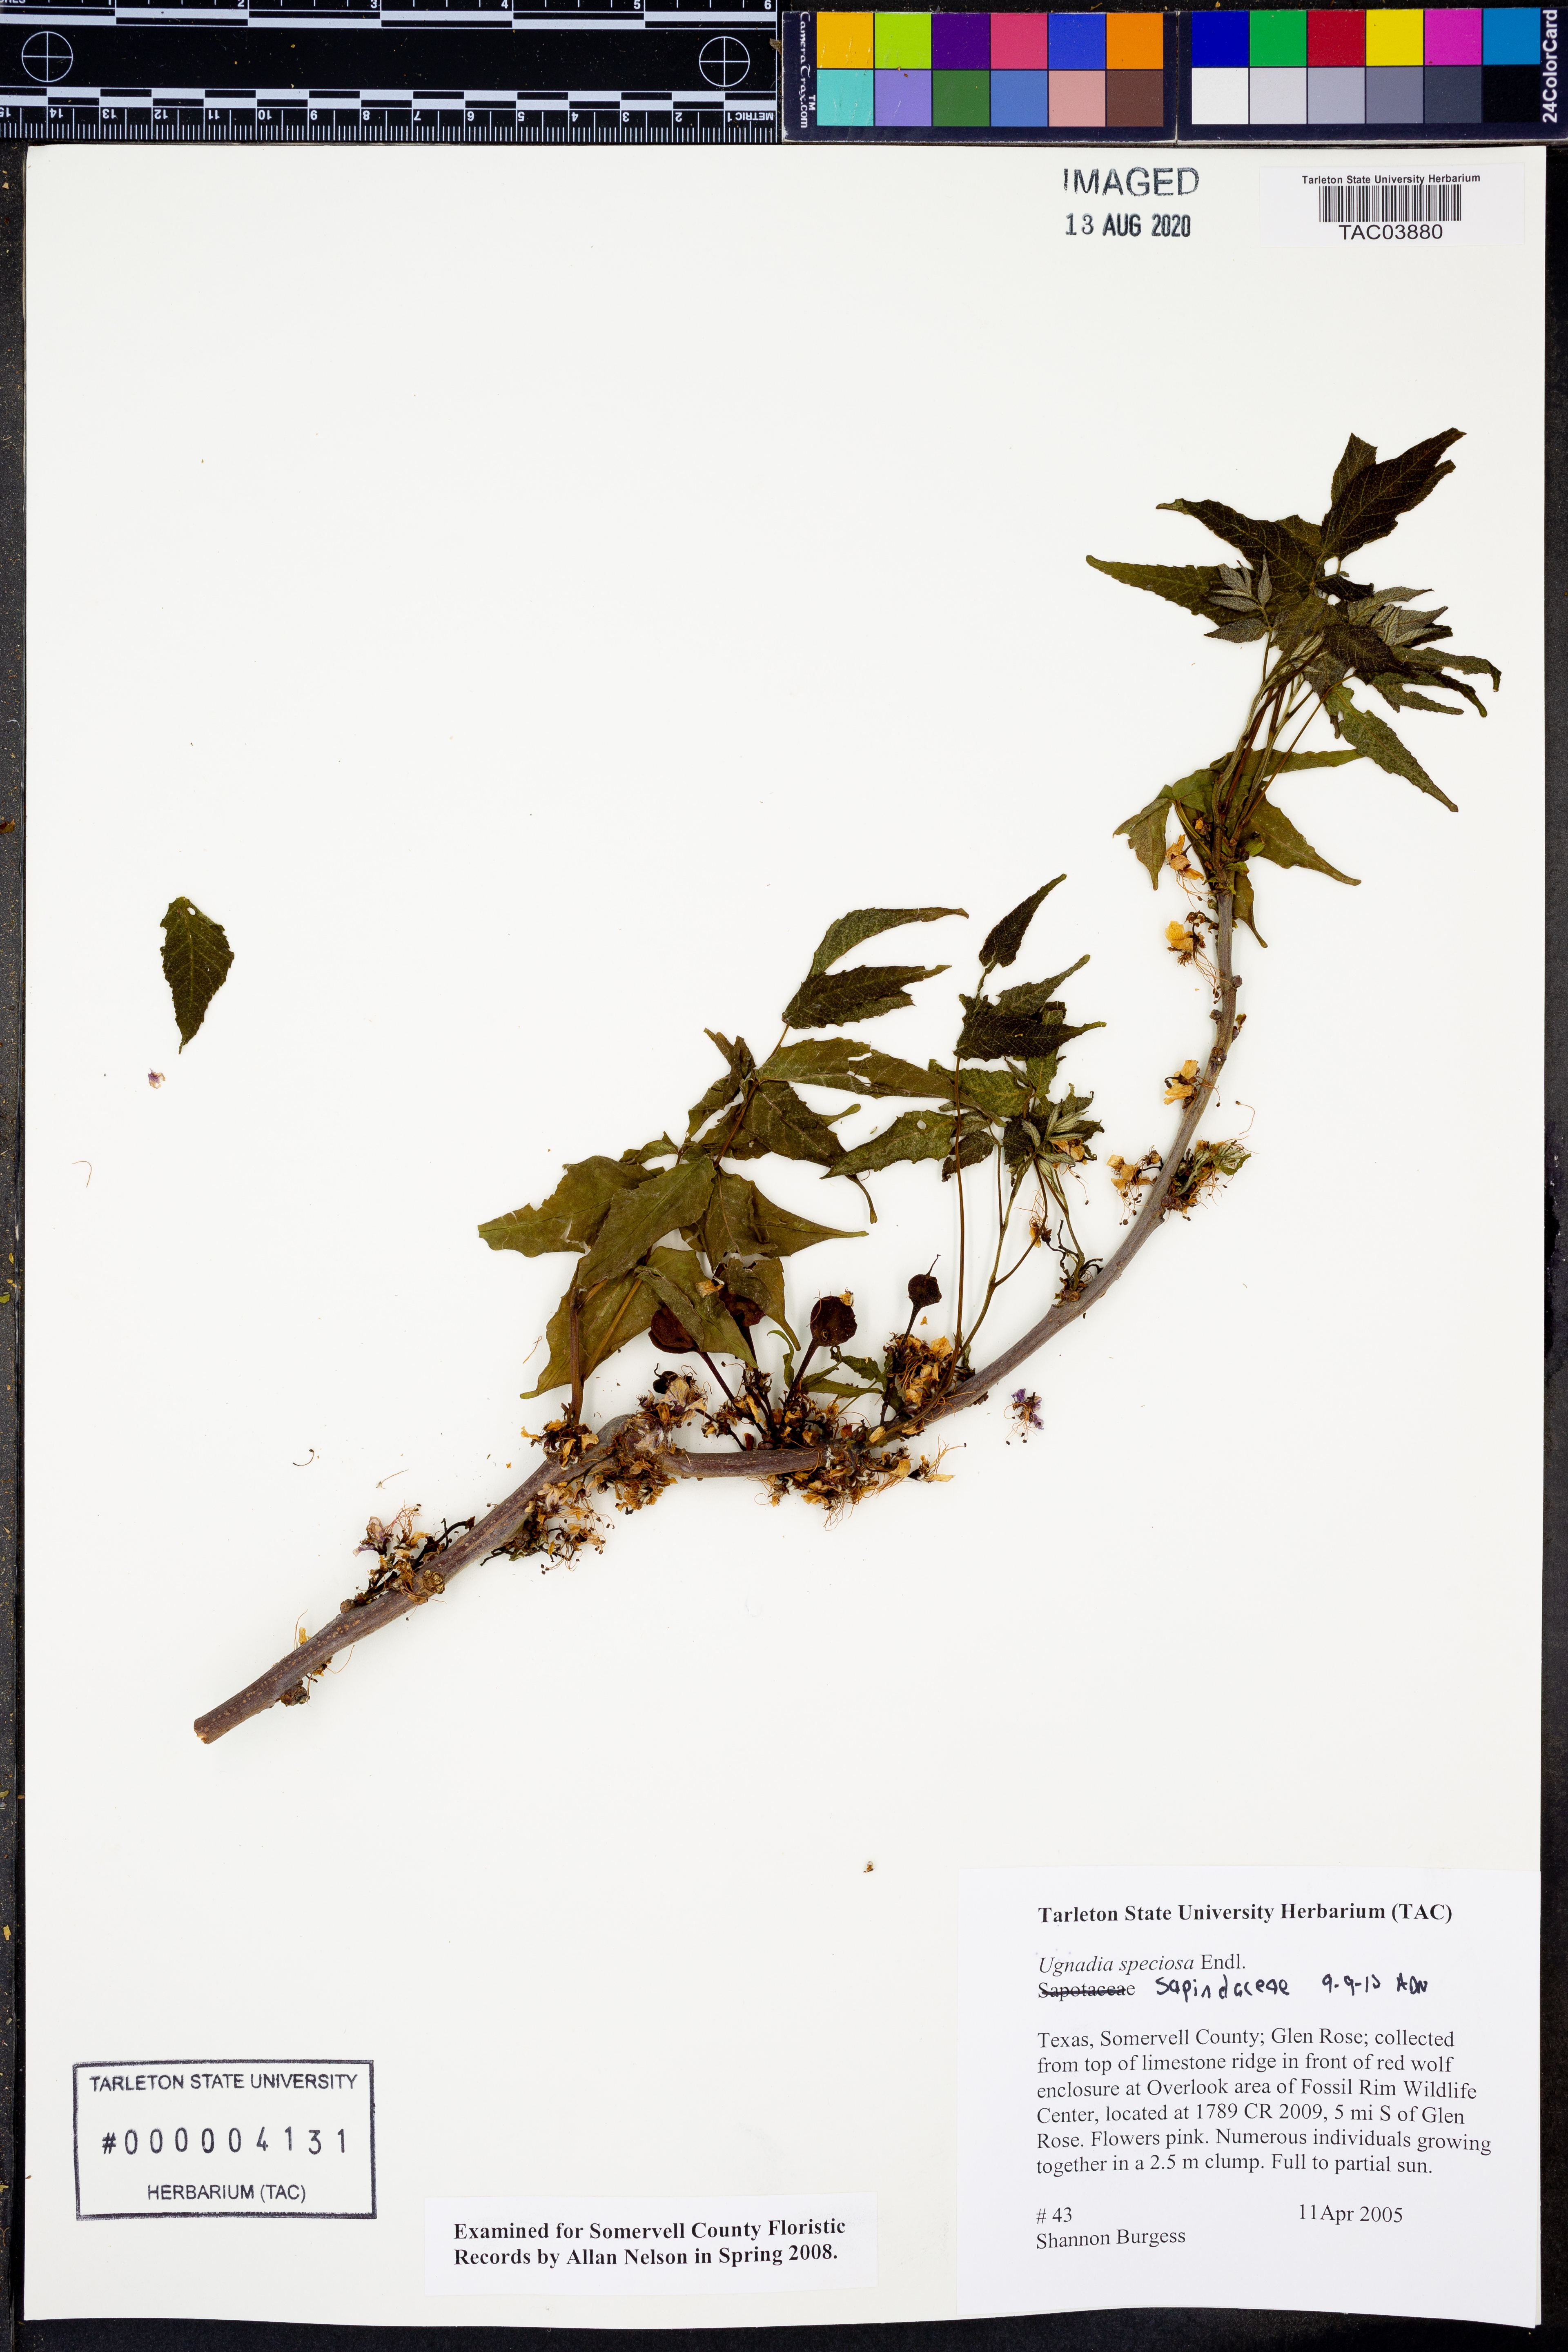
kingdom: Plantae
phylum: Tracheophyta
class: Magnoliopsida
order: Sapindales
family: Sapindaceae
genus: Ungnadia
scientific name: Ungnadia speciosa
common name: Texas-buckeye
